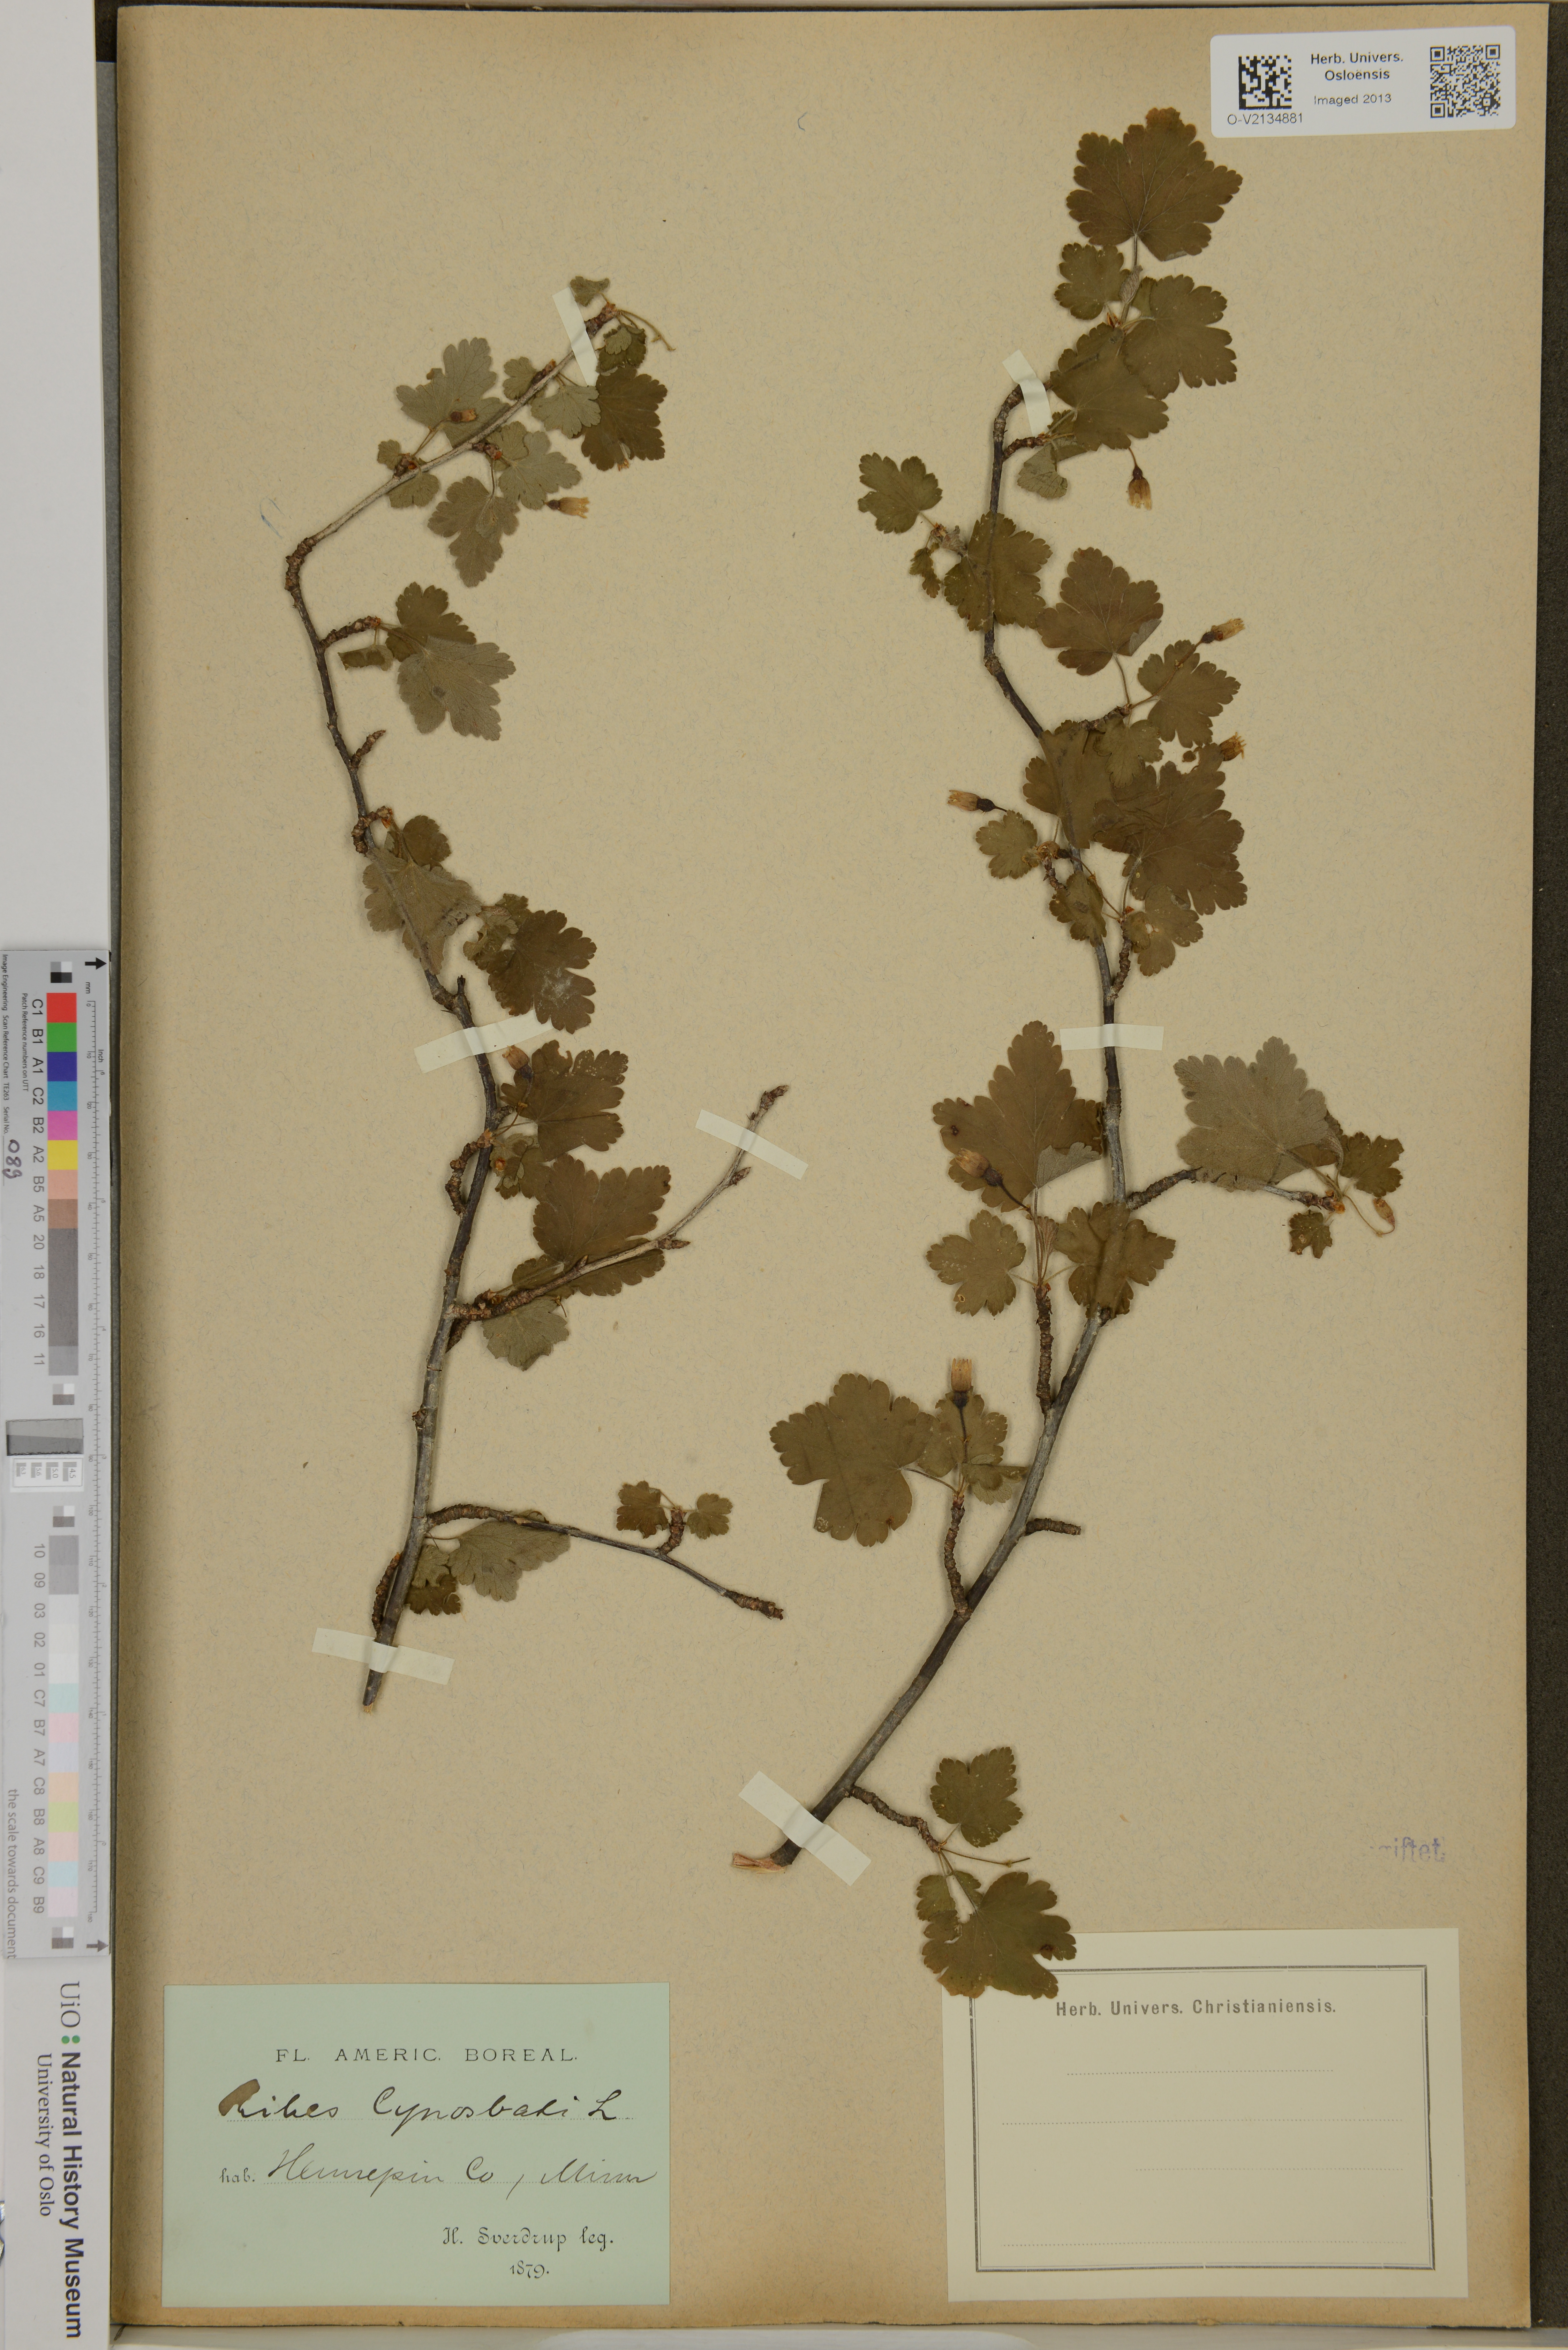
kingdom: Plantae
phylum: Tracheophyta
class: Magnoliopsida
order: Saxifragales
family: Grossulariaceae
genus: Ribes
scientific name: Ribes cynosbati
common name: American gooseberry
